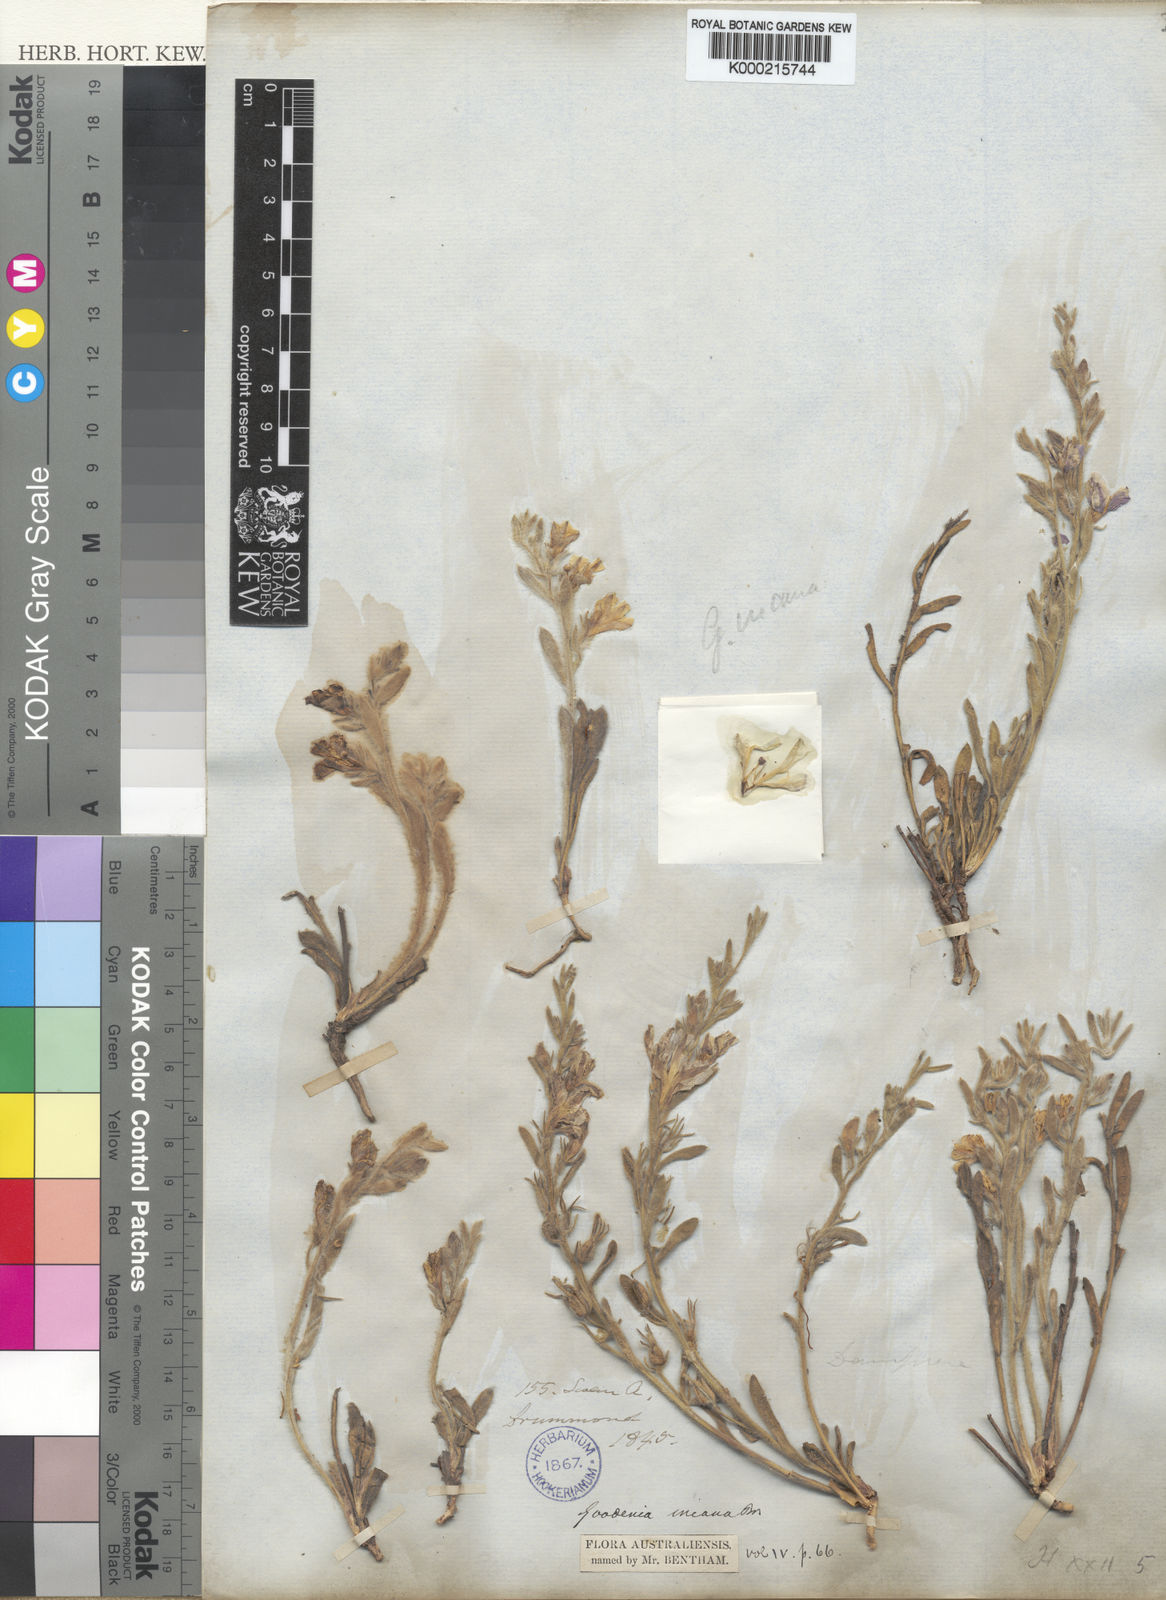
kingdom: Plantae
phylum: Tracheophyta
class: Magnoliopsida
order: Asterales
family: Goodeniaceae
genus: Goodenia
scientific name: Goodenia incana
